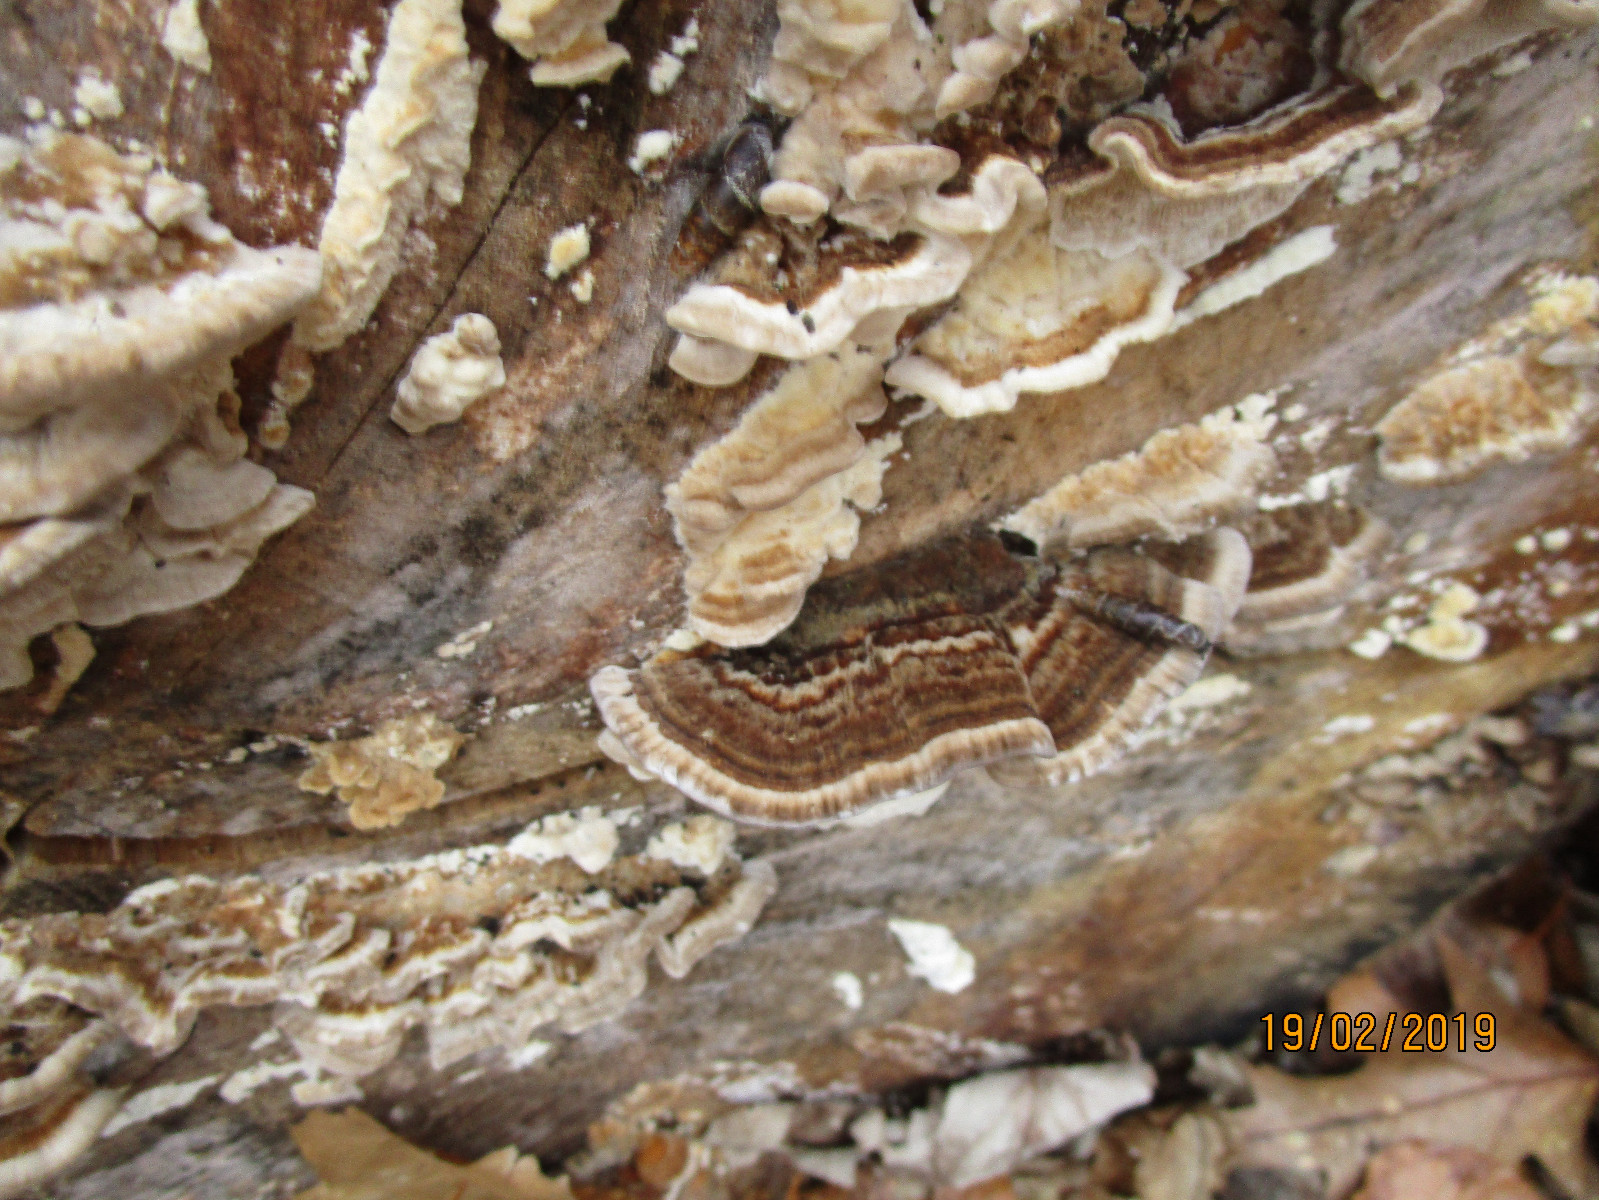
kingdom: Fungi
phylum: Basidiomycota
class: Agaricomycetes
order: Polyporales
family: Polyporaceae
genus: Trametes
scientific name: Trametes versicolor
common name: broget læderporesvamp
